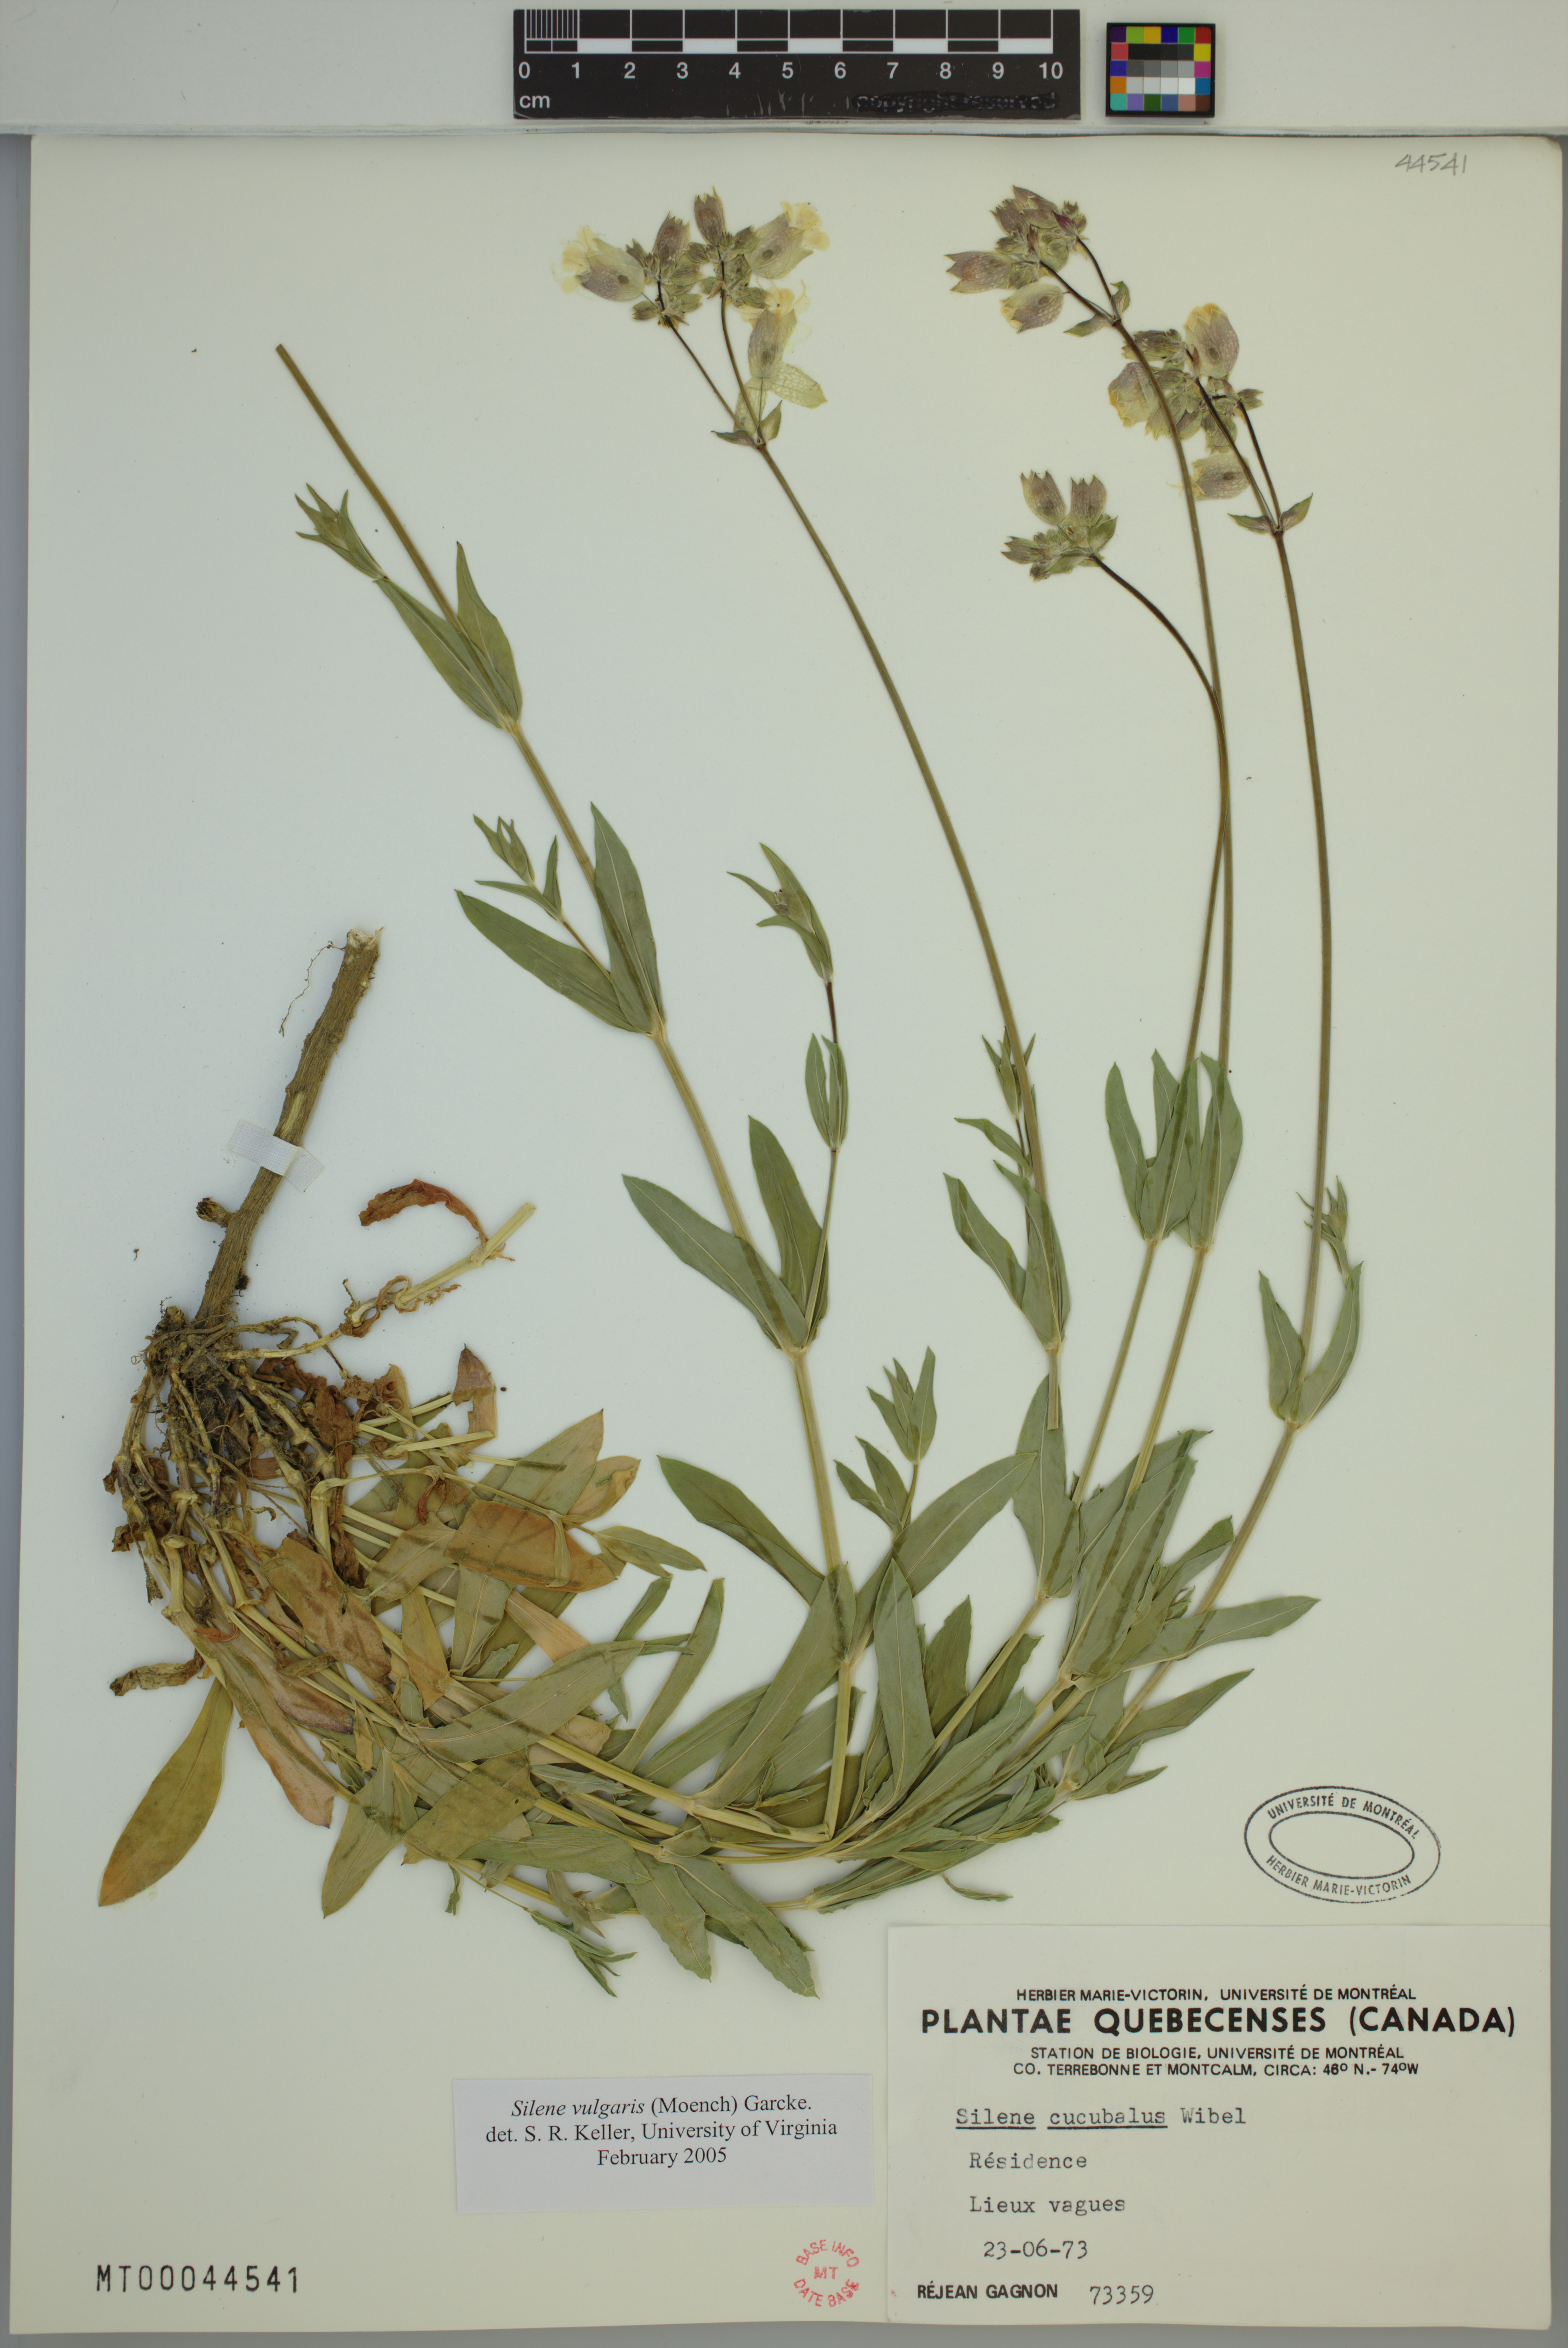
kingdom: Plantae
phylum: Tracheophyta
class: Magnoliopsida
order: Caryophyllales
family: Caryophyllaceae
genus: Silene
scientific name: Silene vulgaris
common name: Bladder campion
